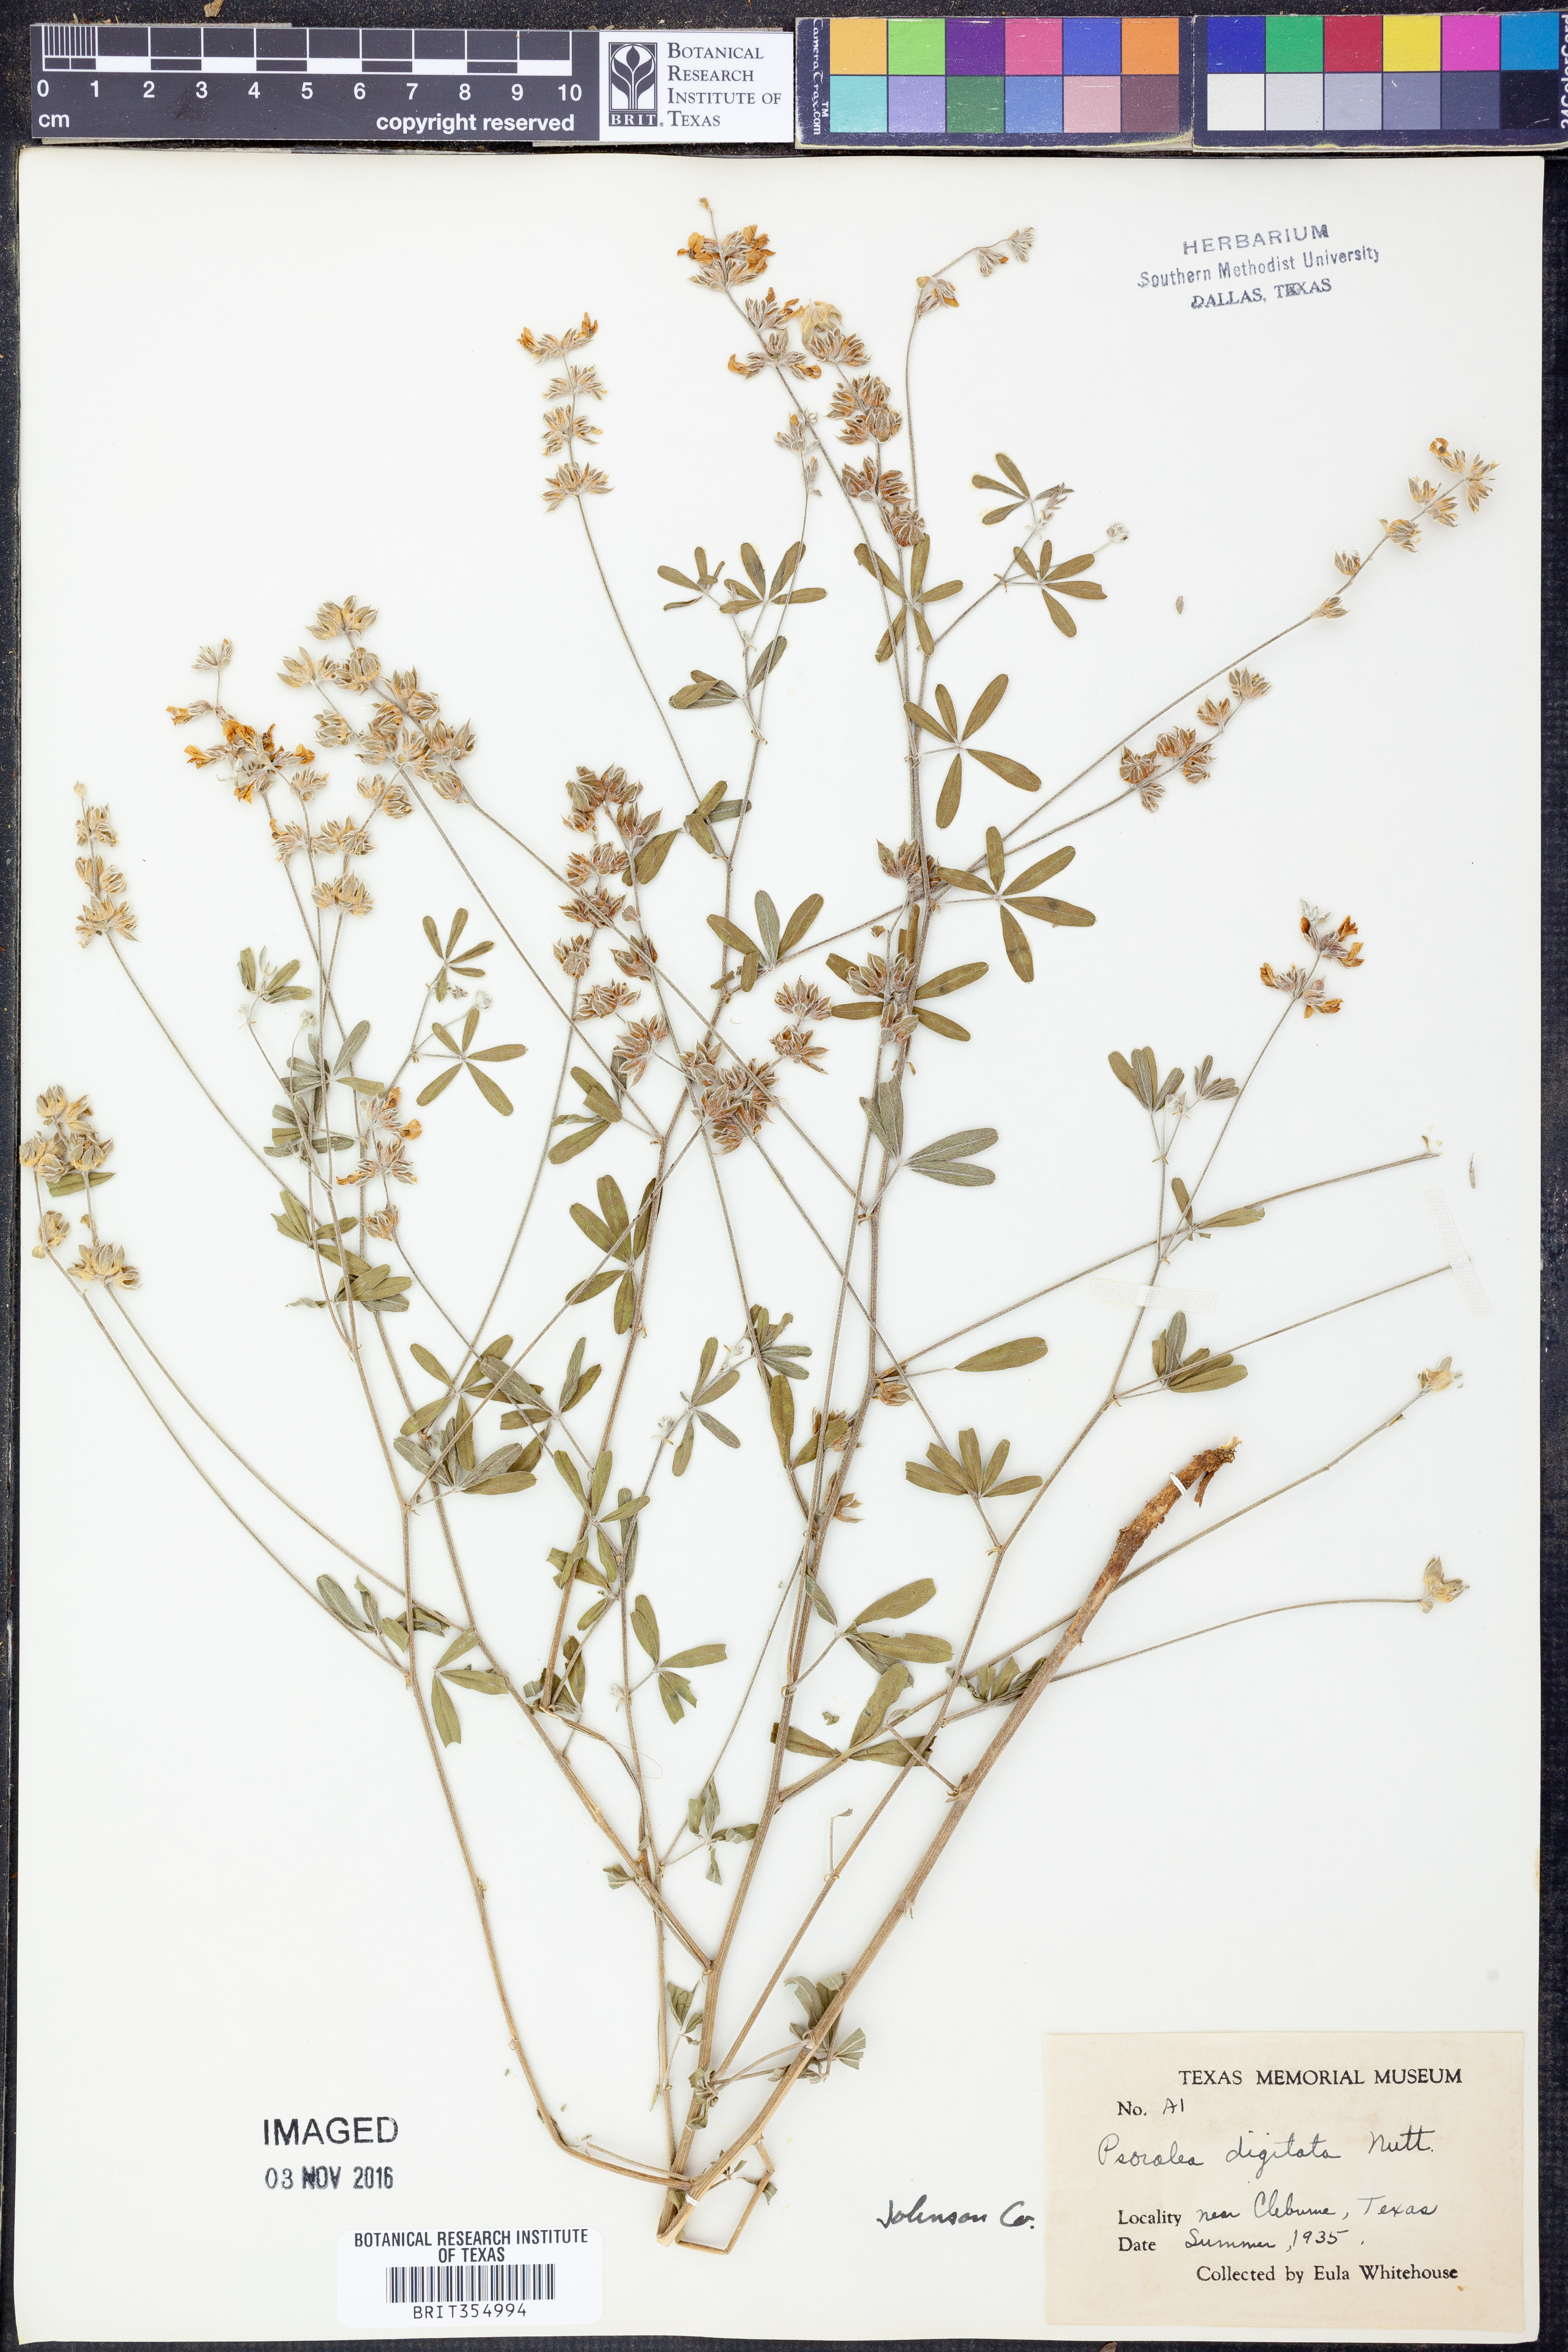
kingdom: Plantae
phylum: Tracheophyta
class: Magnoliopsida
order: Fabales
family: Fabaceae
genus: Pediomelum
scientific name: Pediomelum digitatum
